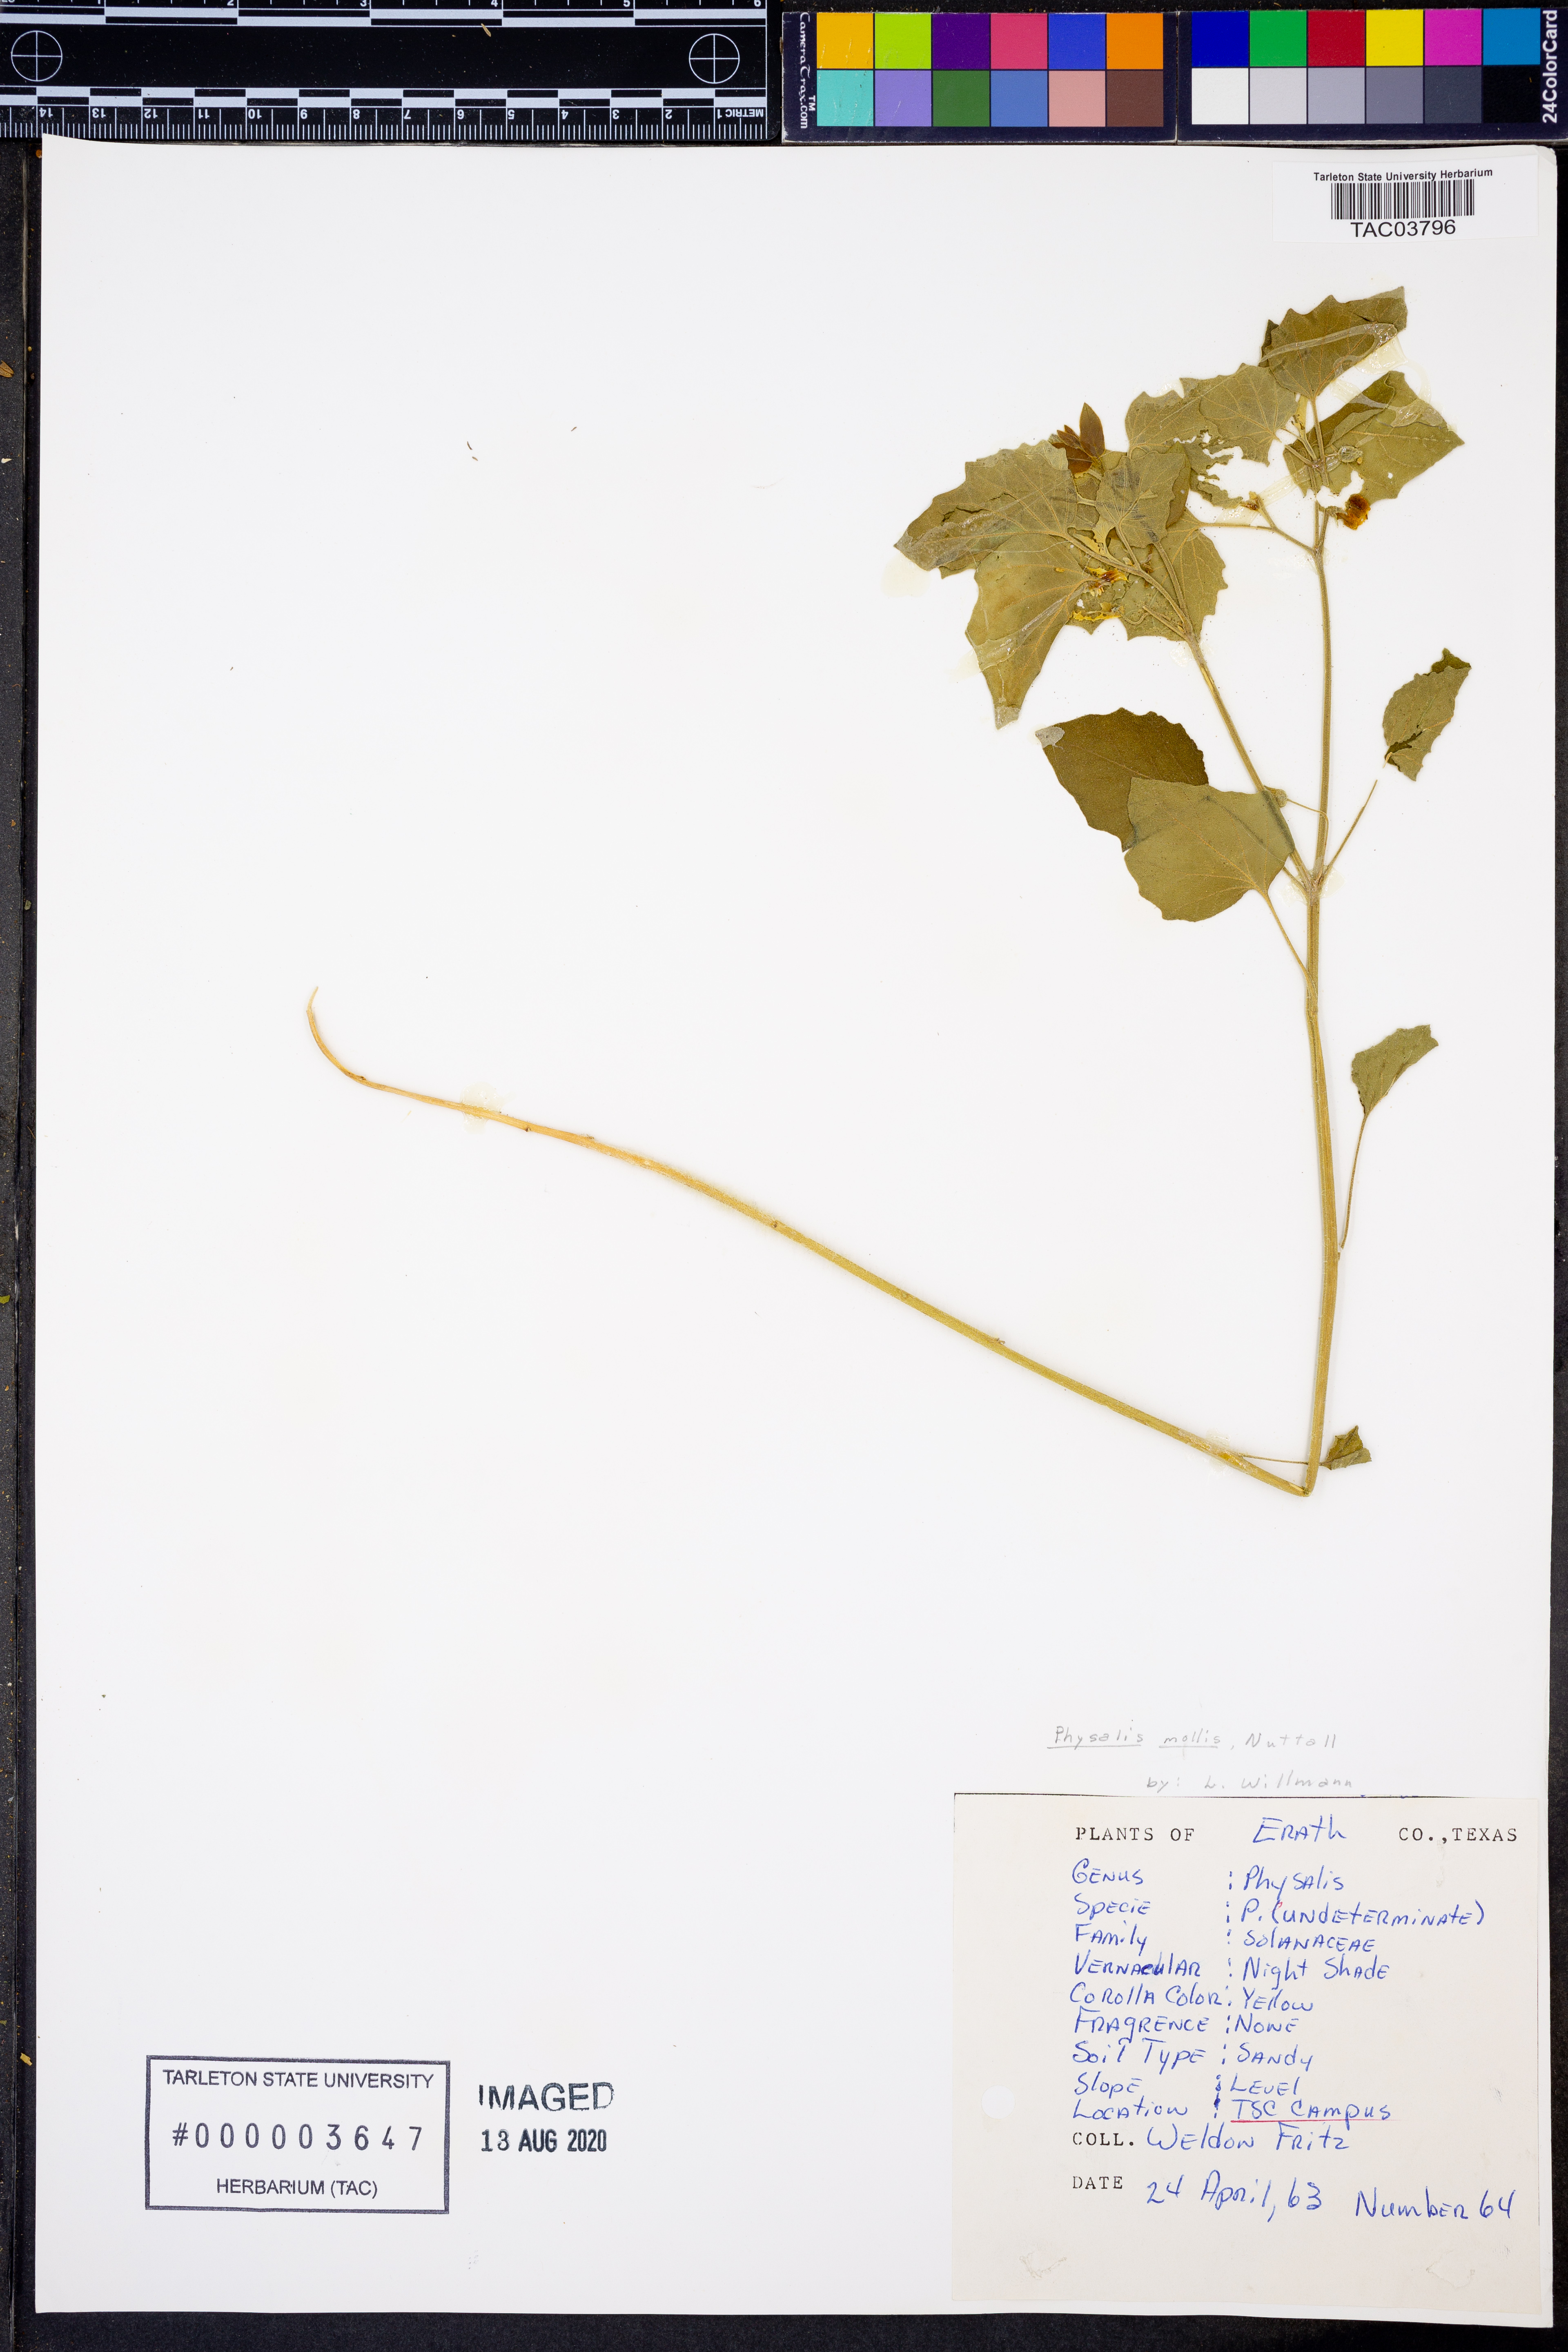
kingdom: Plantae
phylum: Tracheophyta
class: Magnoliopsida
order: Solanales
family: Solanaceae
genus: Physalis
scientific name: Physalis mollis
